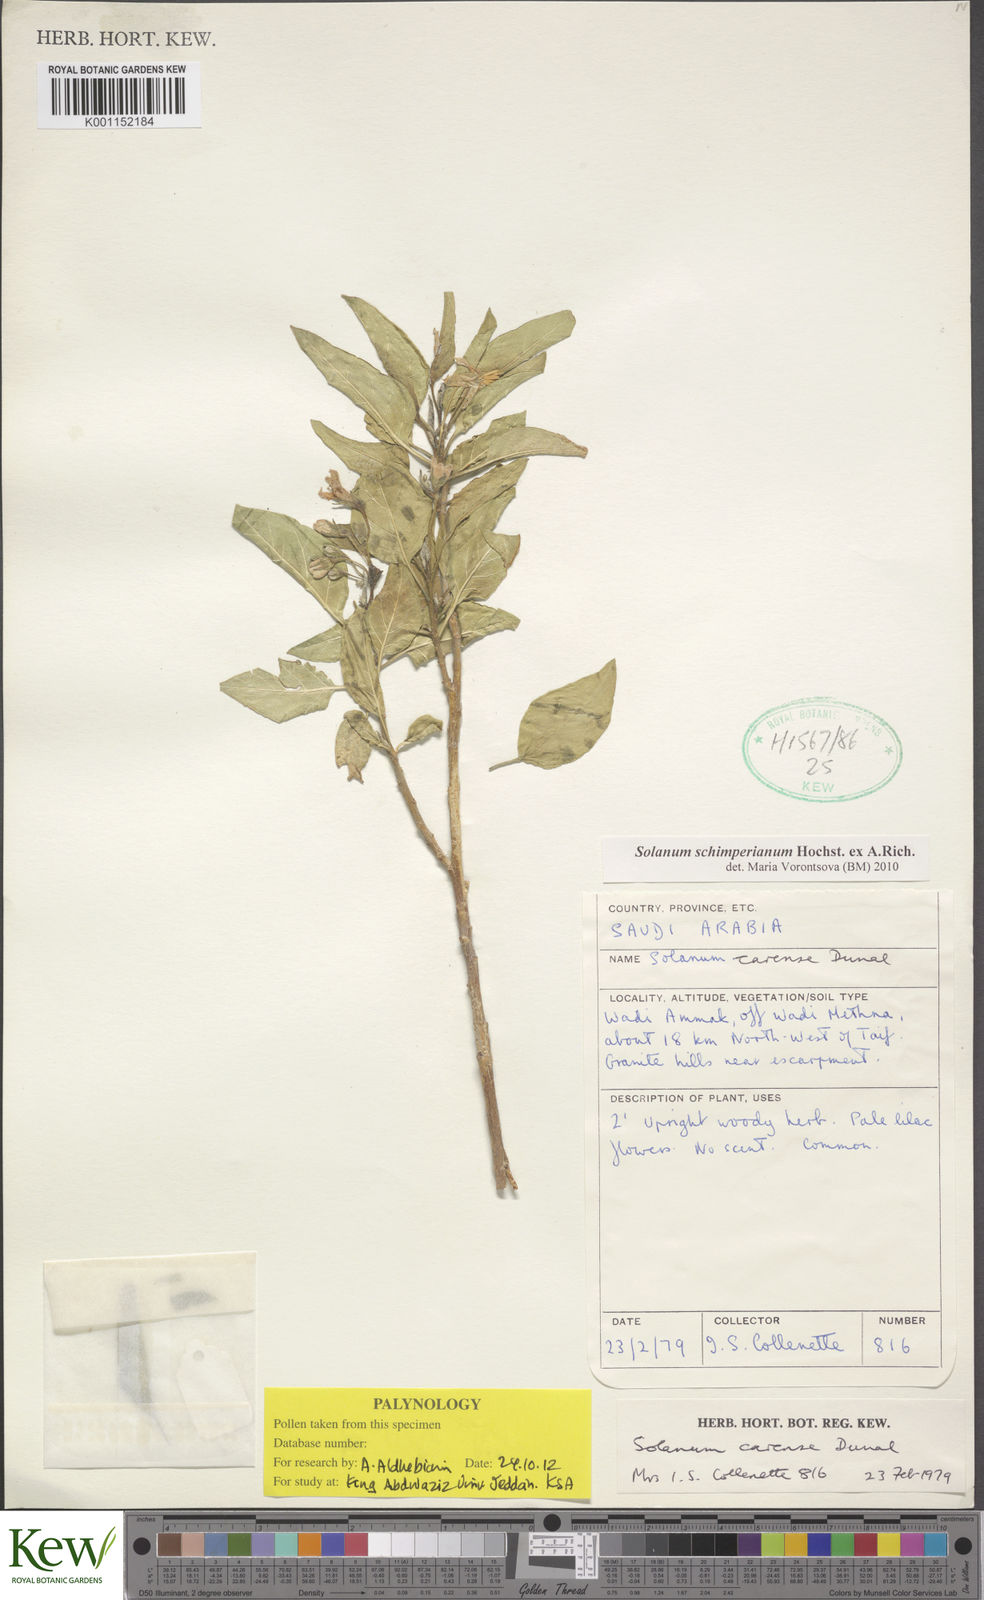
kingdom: Plantae
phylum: Tracheophyta
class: Magnoliopsida
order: Solanales
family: Solanaceae
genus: Solanum
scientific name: Solanum
